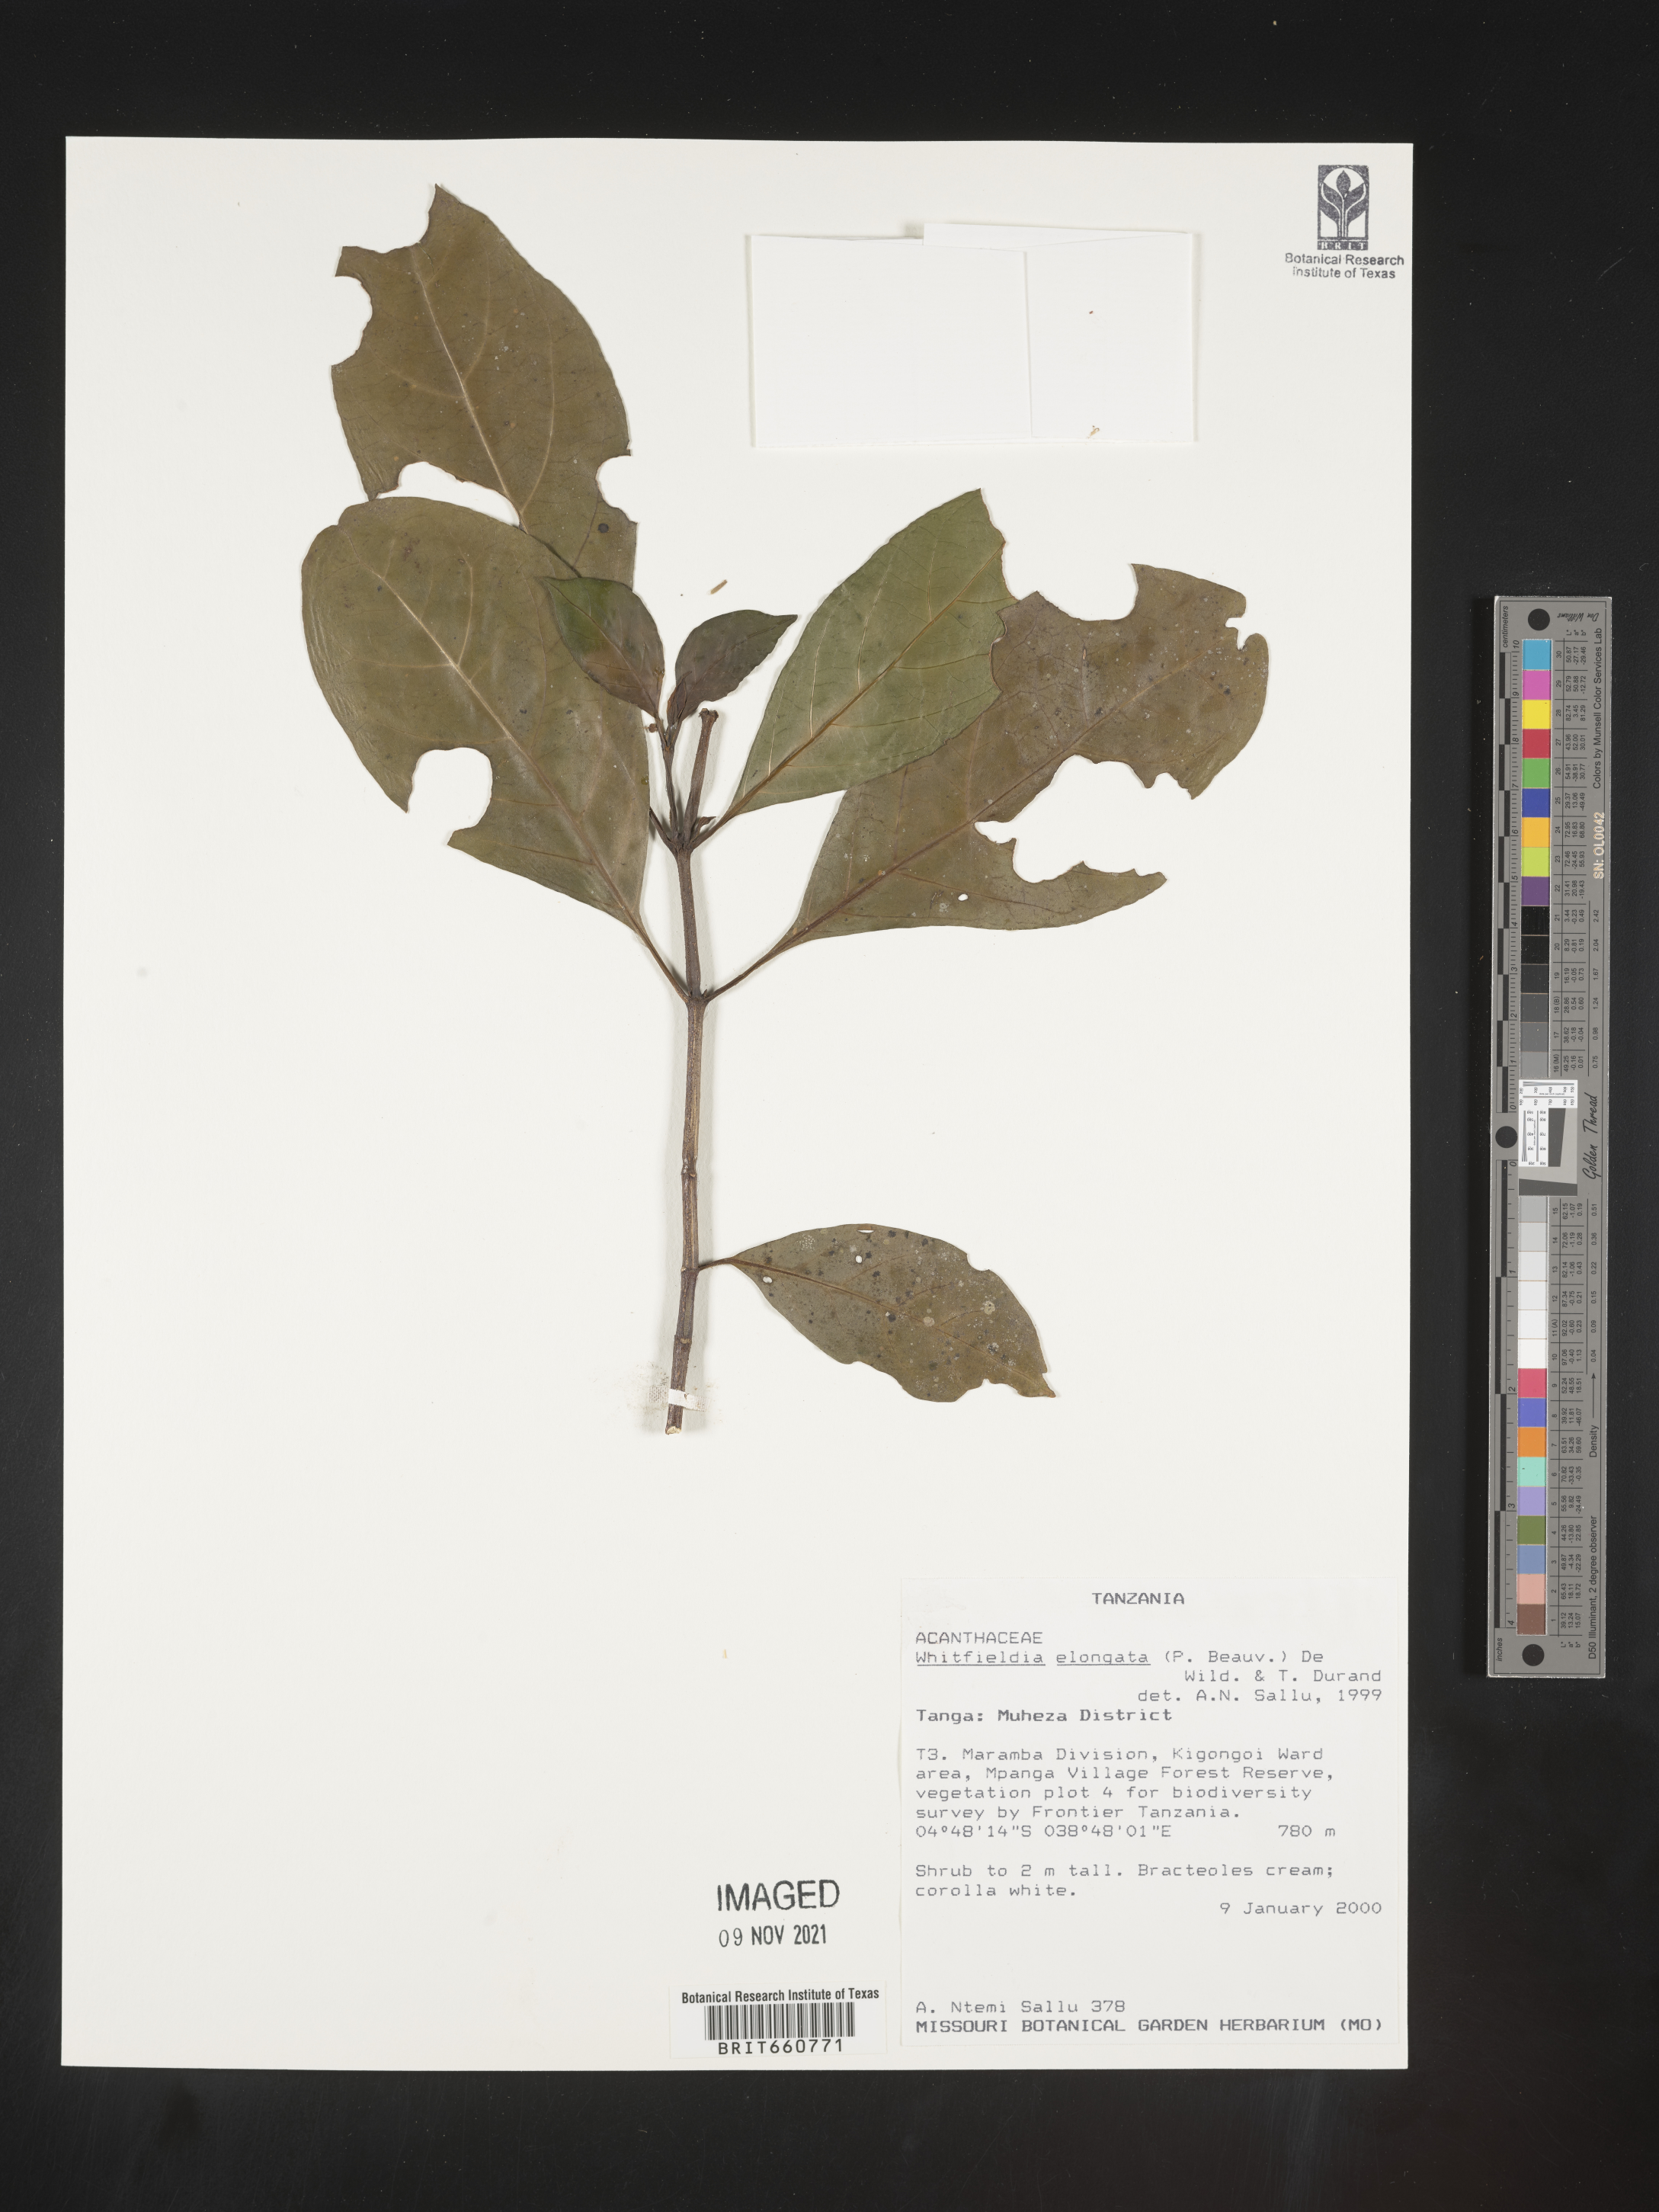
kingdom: Plantae
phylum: Tracheophyta
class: Magnoliopsida
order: Lamiales
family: Acanthaceae
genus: Whitfieldia
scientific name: Whitfieldia
